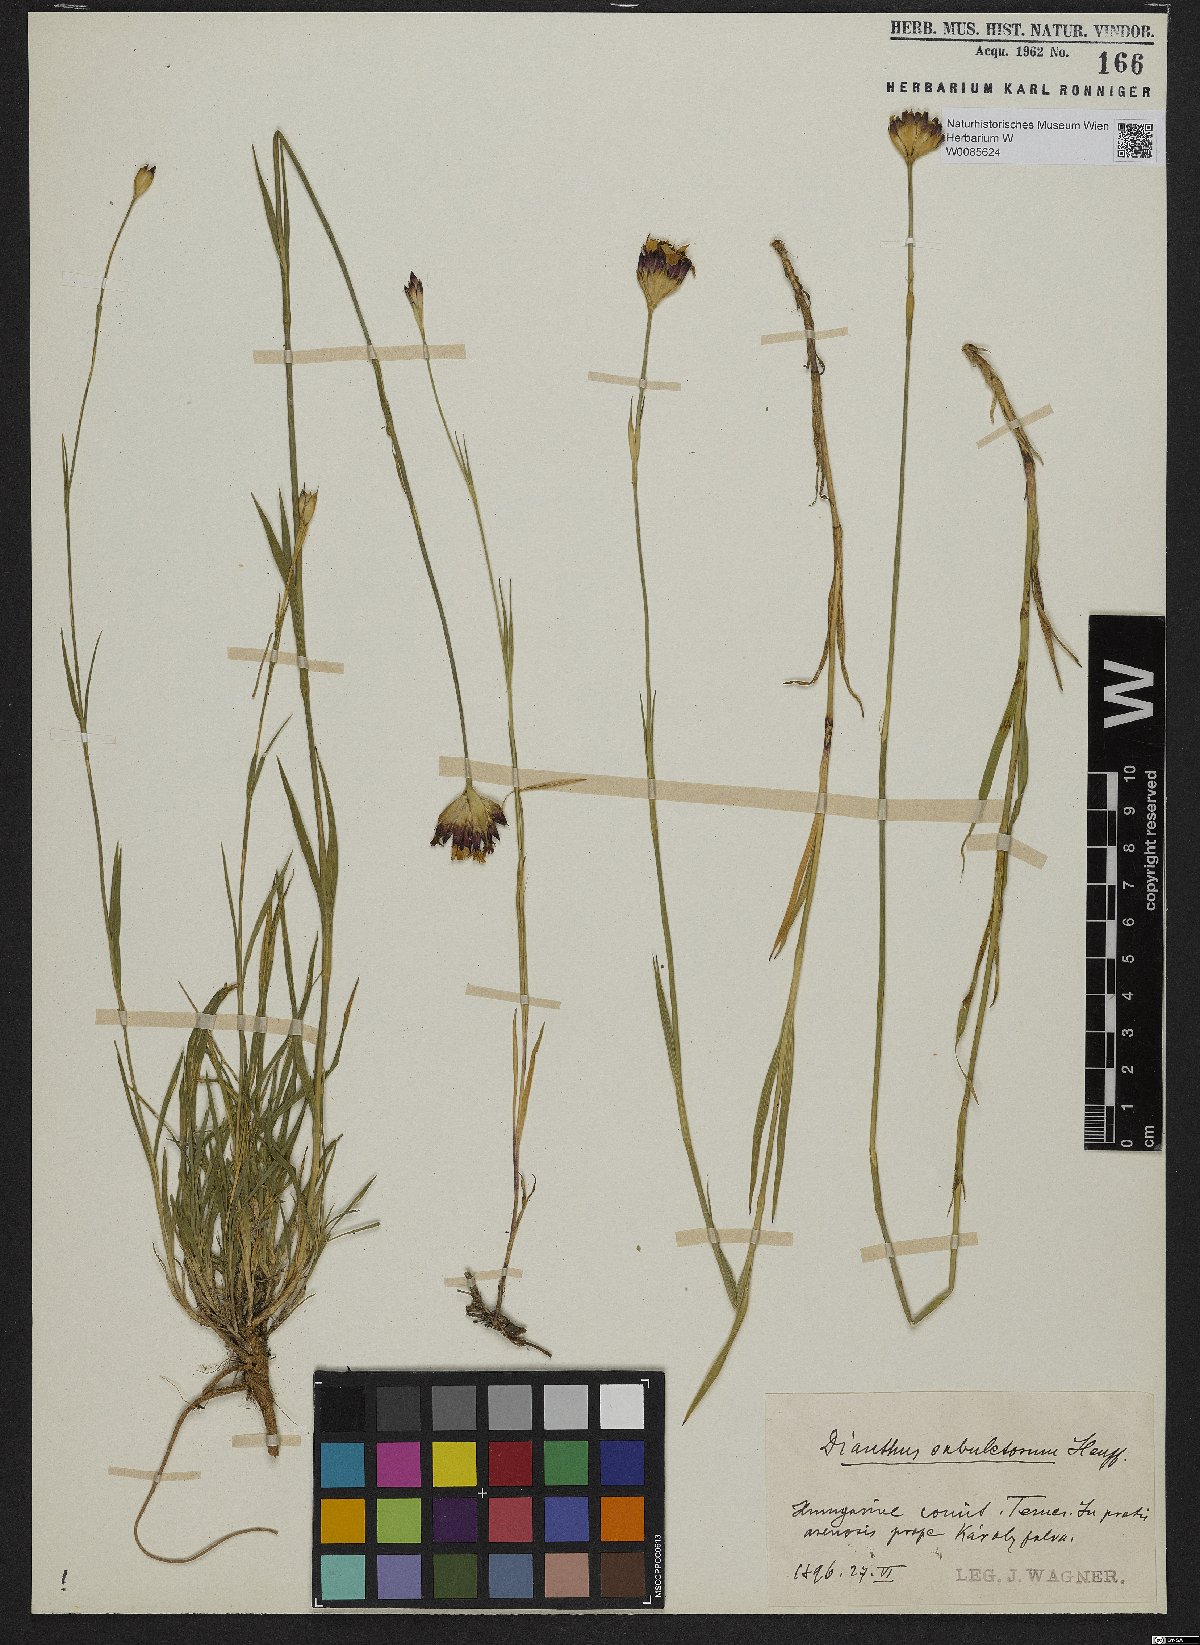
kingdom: Plantae
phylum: Tracheophyta
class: Magnoliopsida
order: Caryophyllales
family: Caryophyllaceae
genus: Dianthus
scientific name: Dianthus giganteiformis
